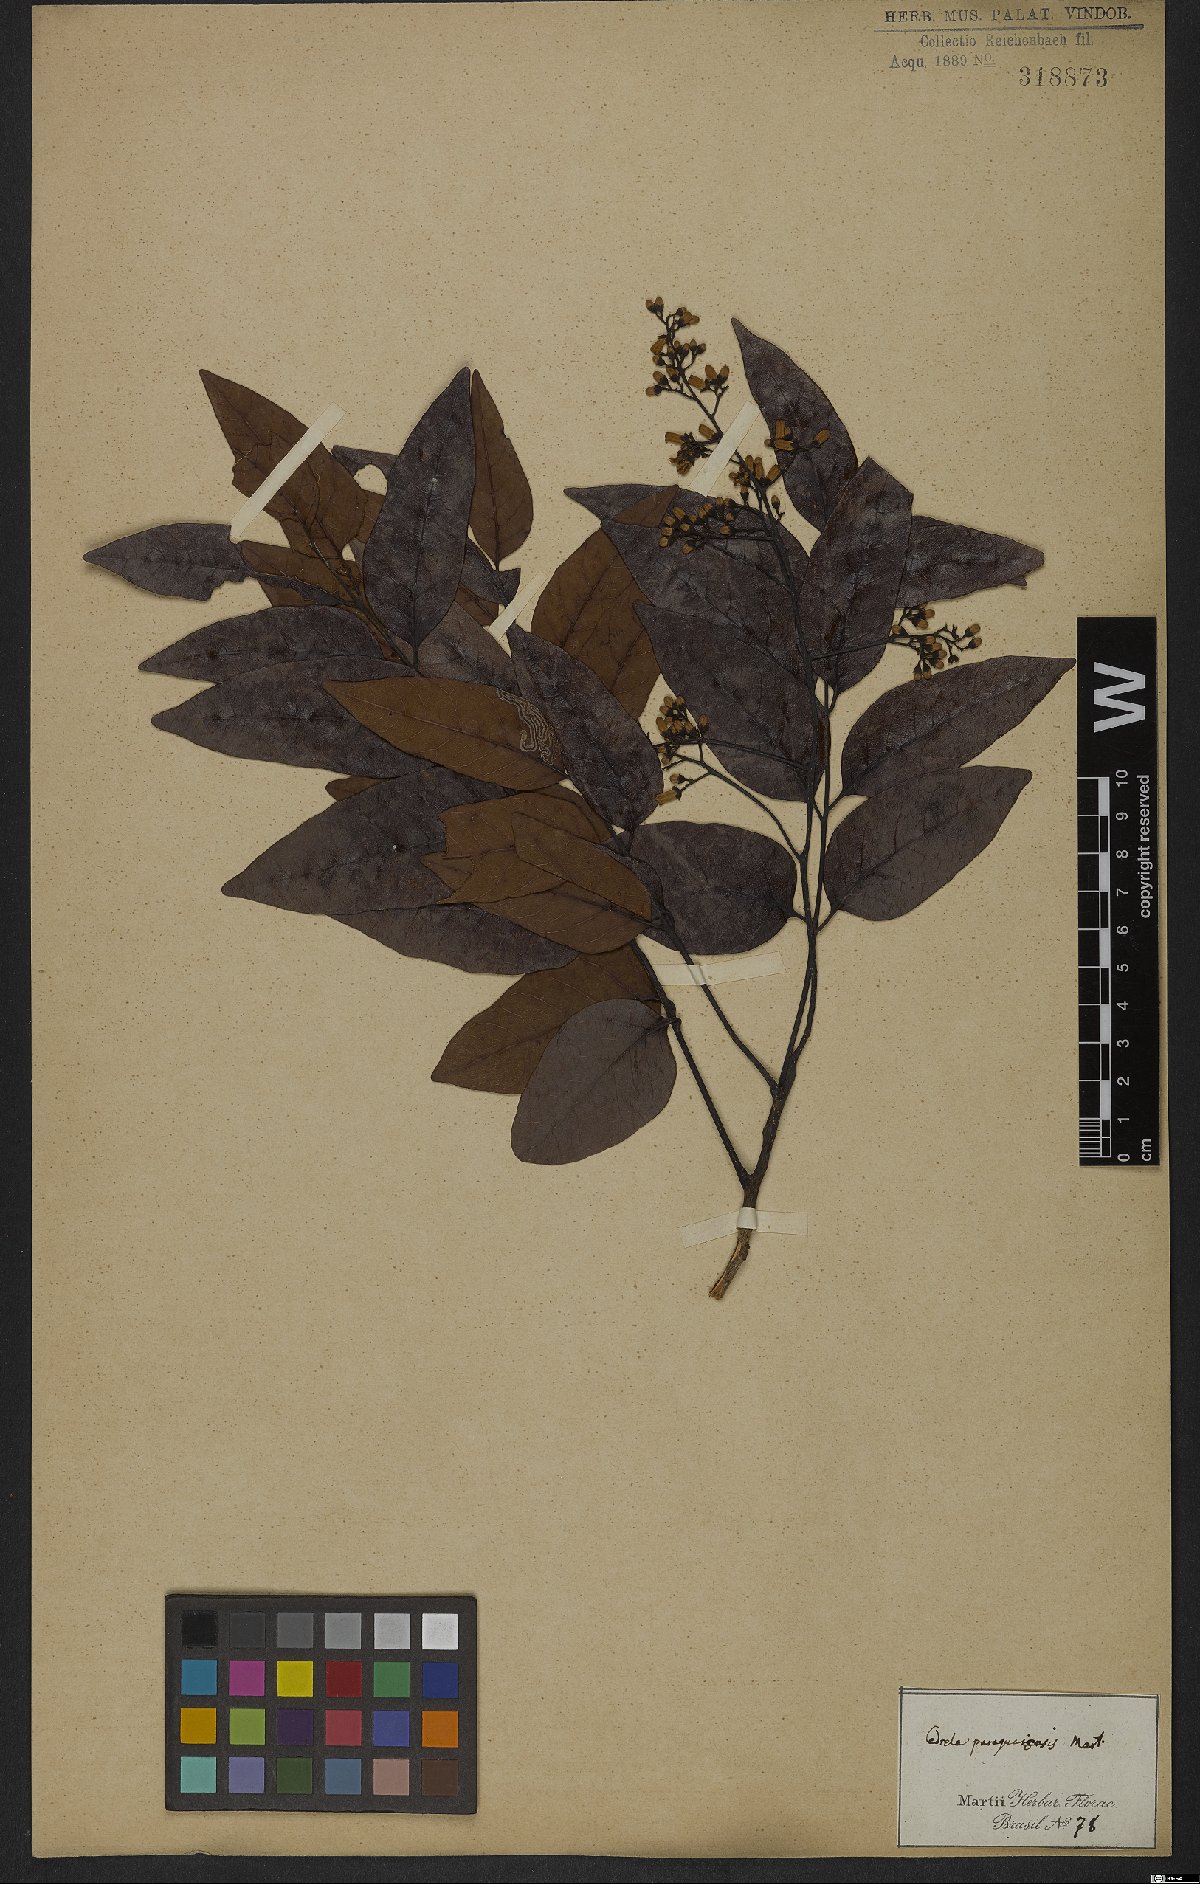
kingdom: Plantae
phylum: Tracheophyta
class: Magnoliopsida
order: Sapindales
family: Meliaceae
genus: Cedrela
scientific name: Cedrela odorata
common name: Red cedar
